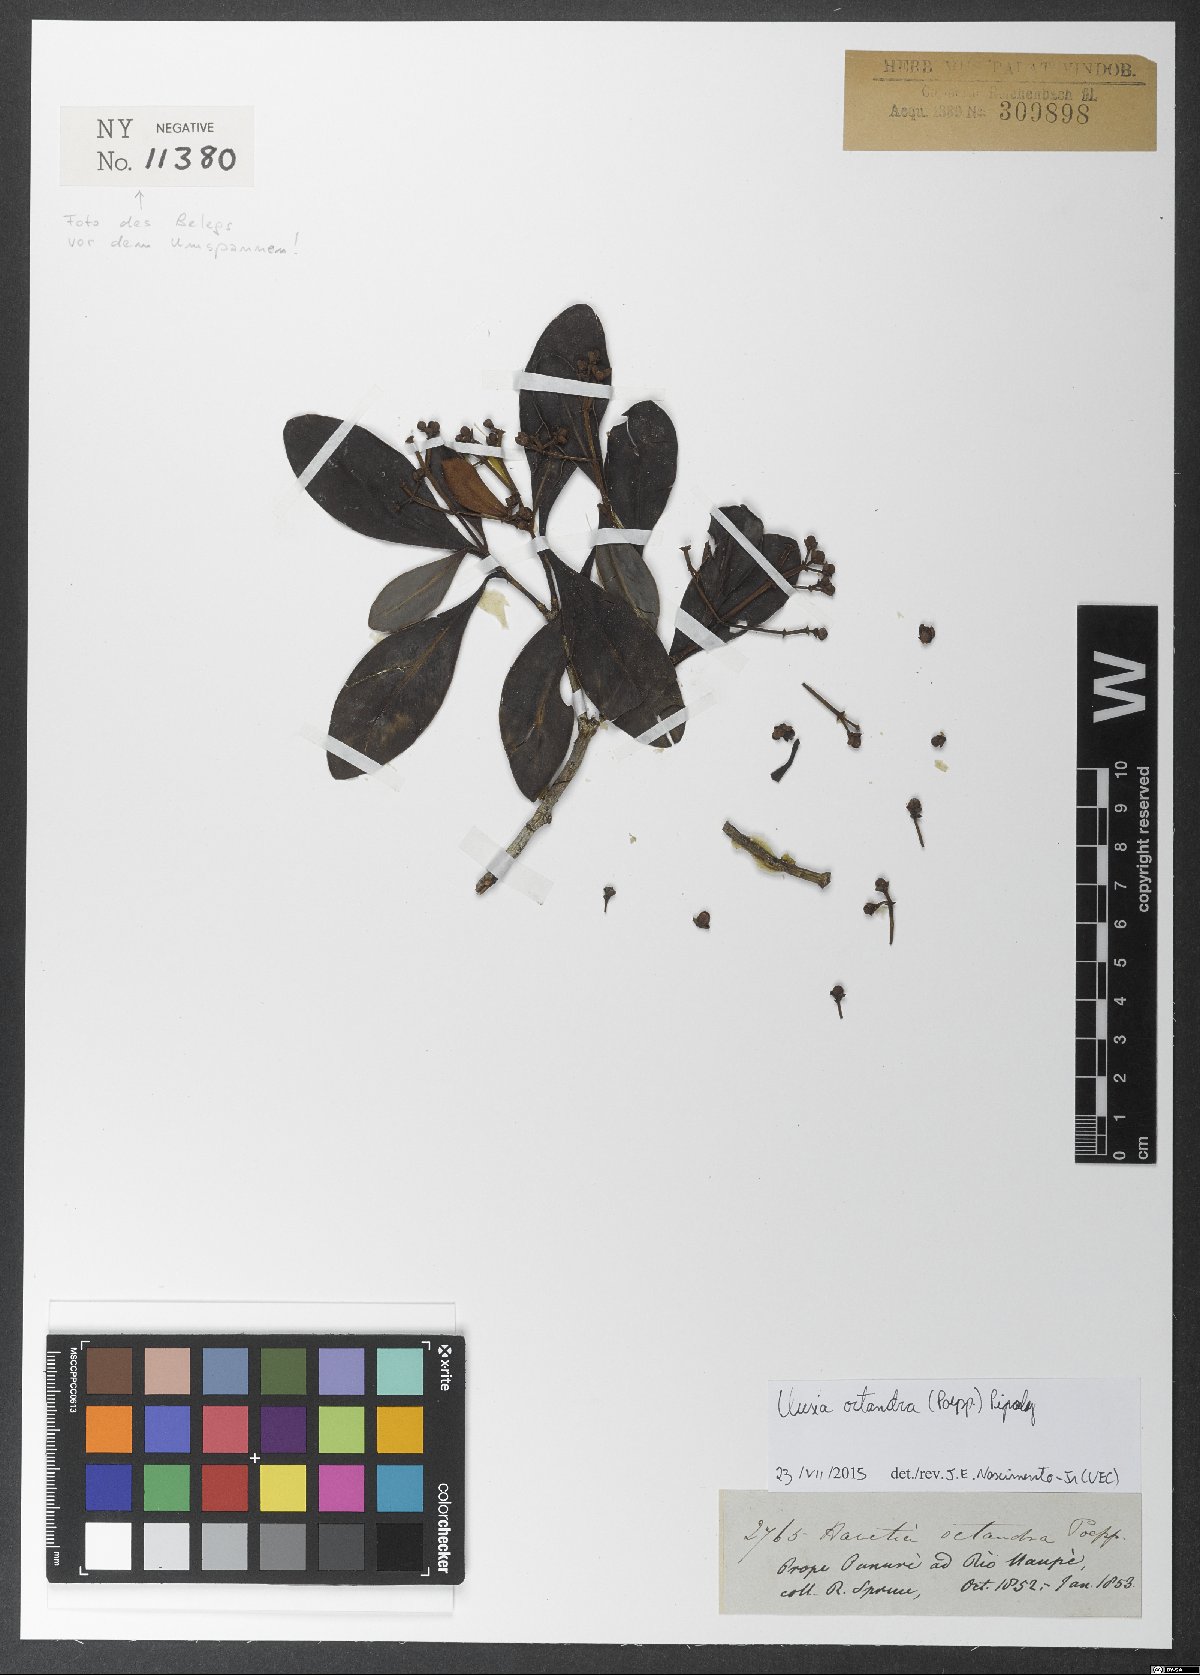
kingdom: Plantae
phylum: Tracheophyta
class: Magnoliopsida
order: Malpighiales
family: Clusiaceae
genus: Clusia
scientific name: Clusia octandra
